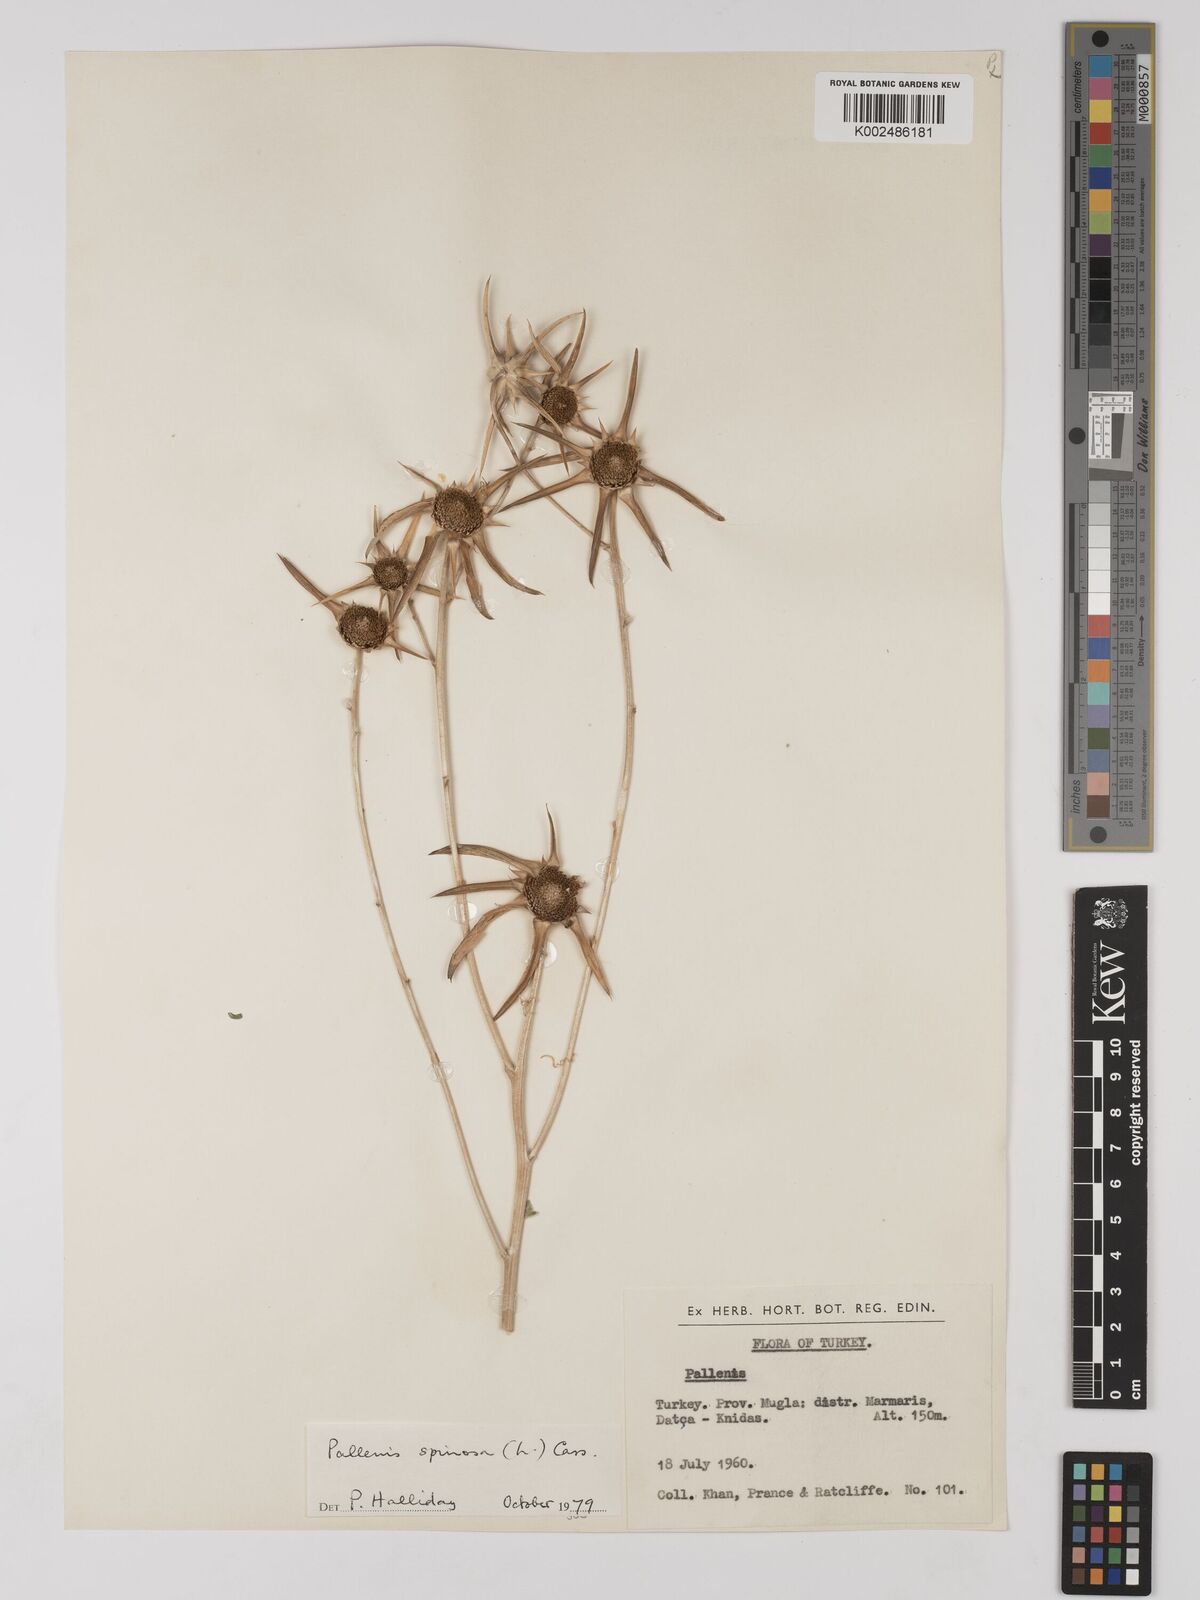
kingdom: Plantae
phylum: Tracheophyta
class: Magnoliopsida
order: Asterales
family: Asteraceae
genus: Pallenis
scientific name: Pallenis spinosa
